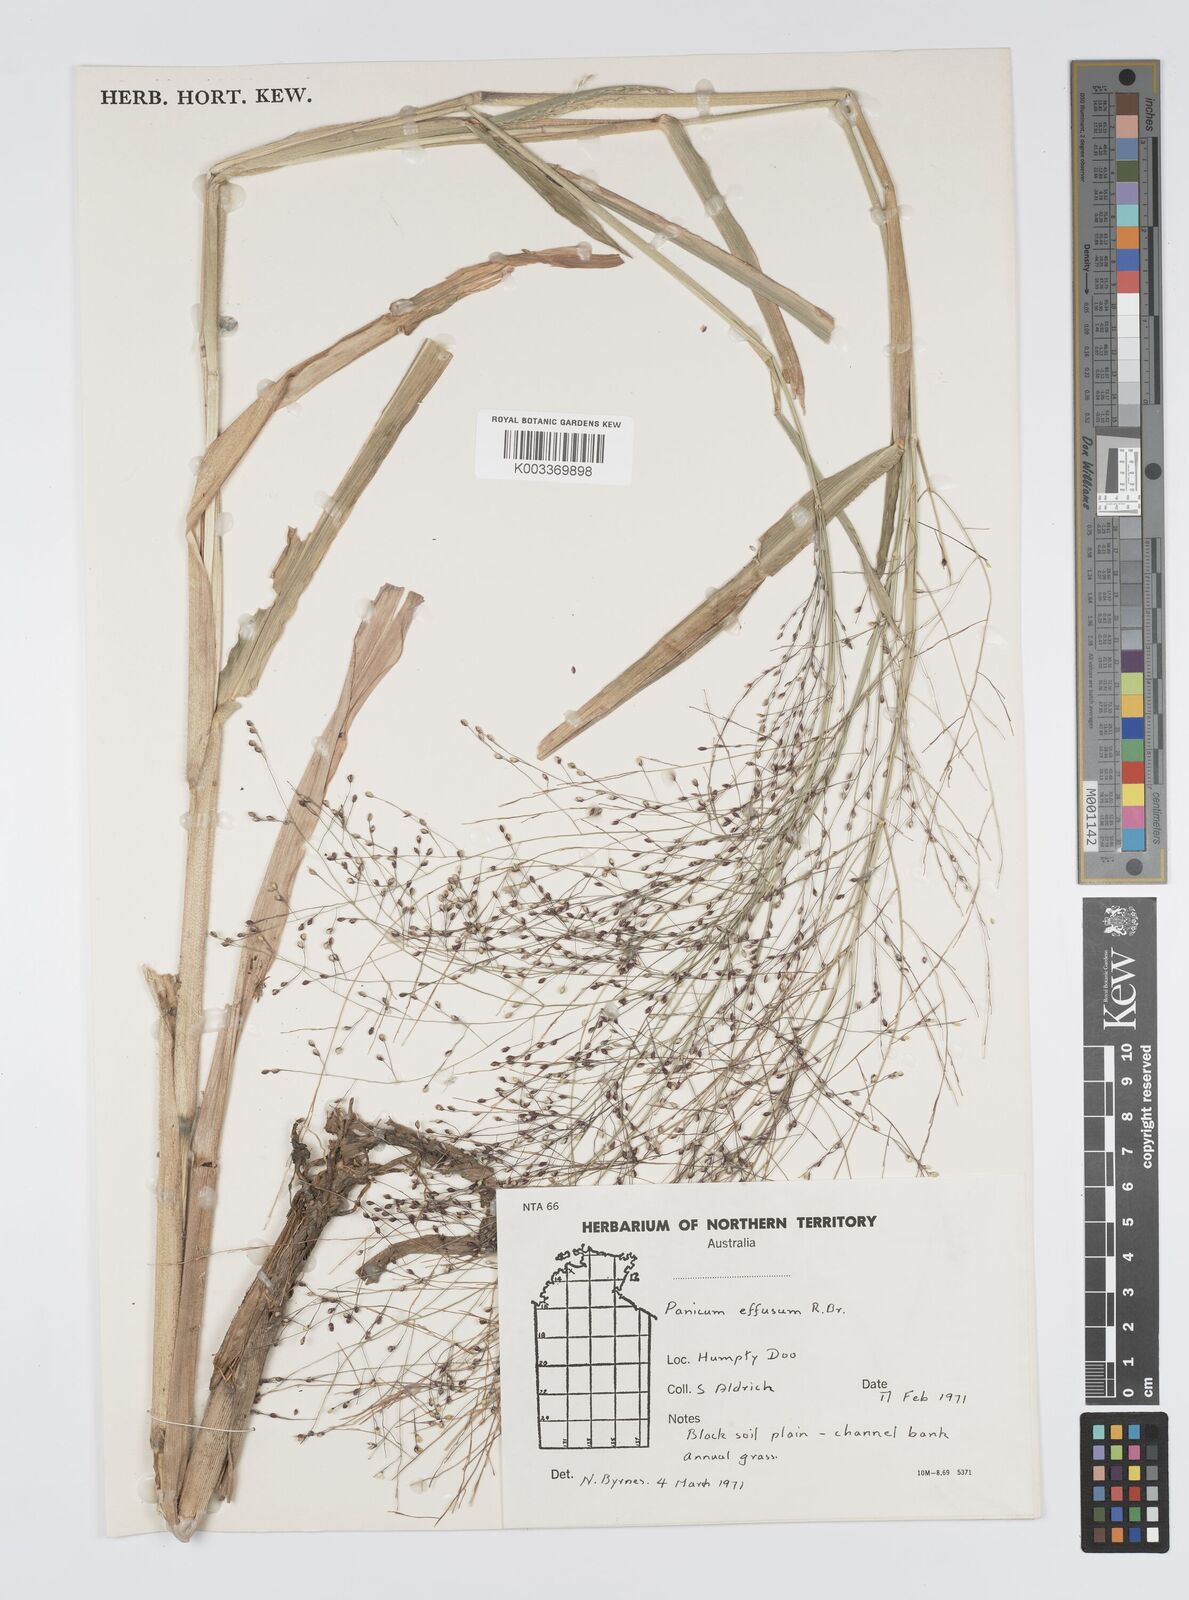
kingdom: Plantae
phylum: Tracheophyta
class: Liliopsida
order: Poales
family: Poaceae
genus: Panicum
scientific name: Panicum effusum
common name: Hairy panic grass
